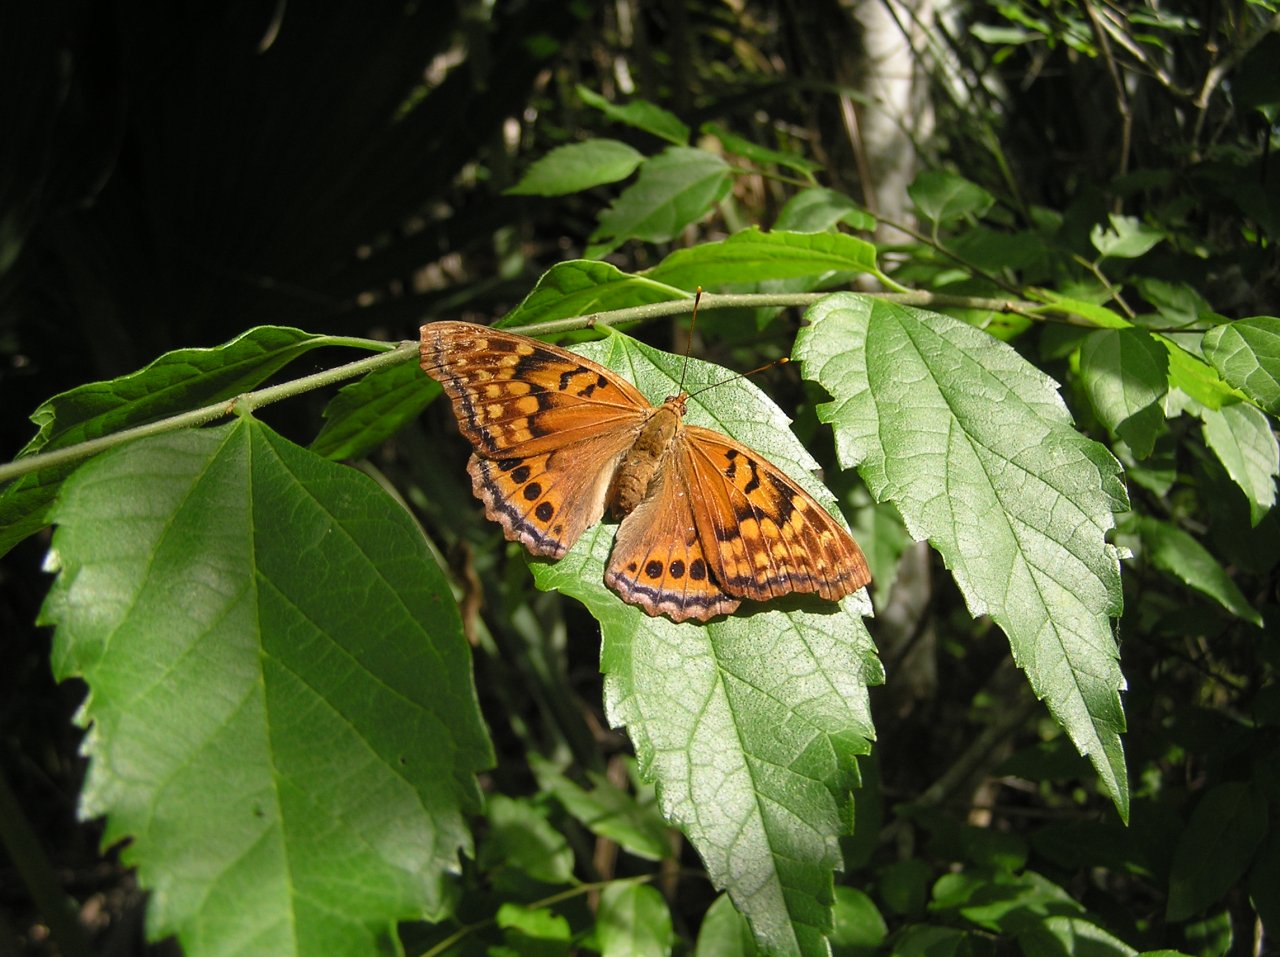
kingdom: Animalia
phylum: Arthropoda
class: Insecta
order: Lepidoptera
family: Nymphalidae
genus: Asterocampa
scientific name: Asterocampa clyton
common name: Tawny Emperor
